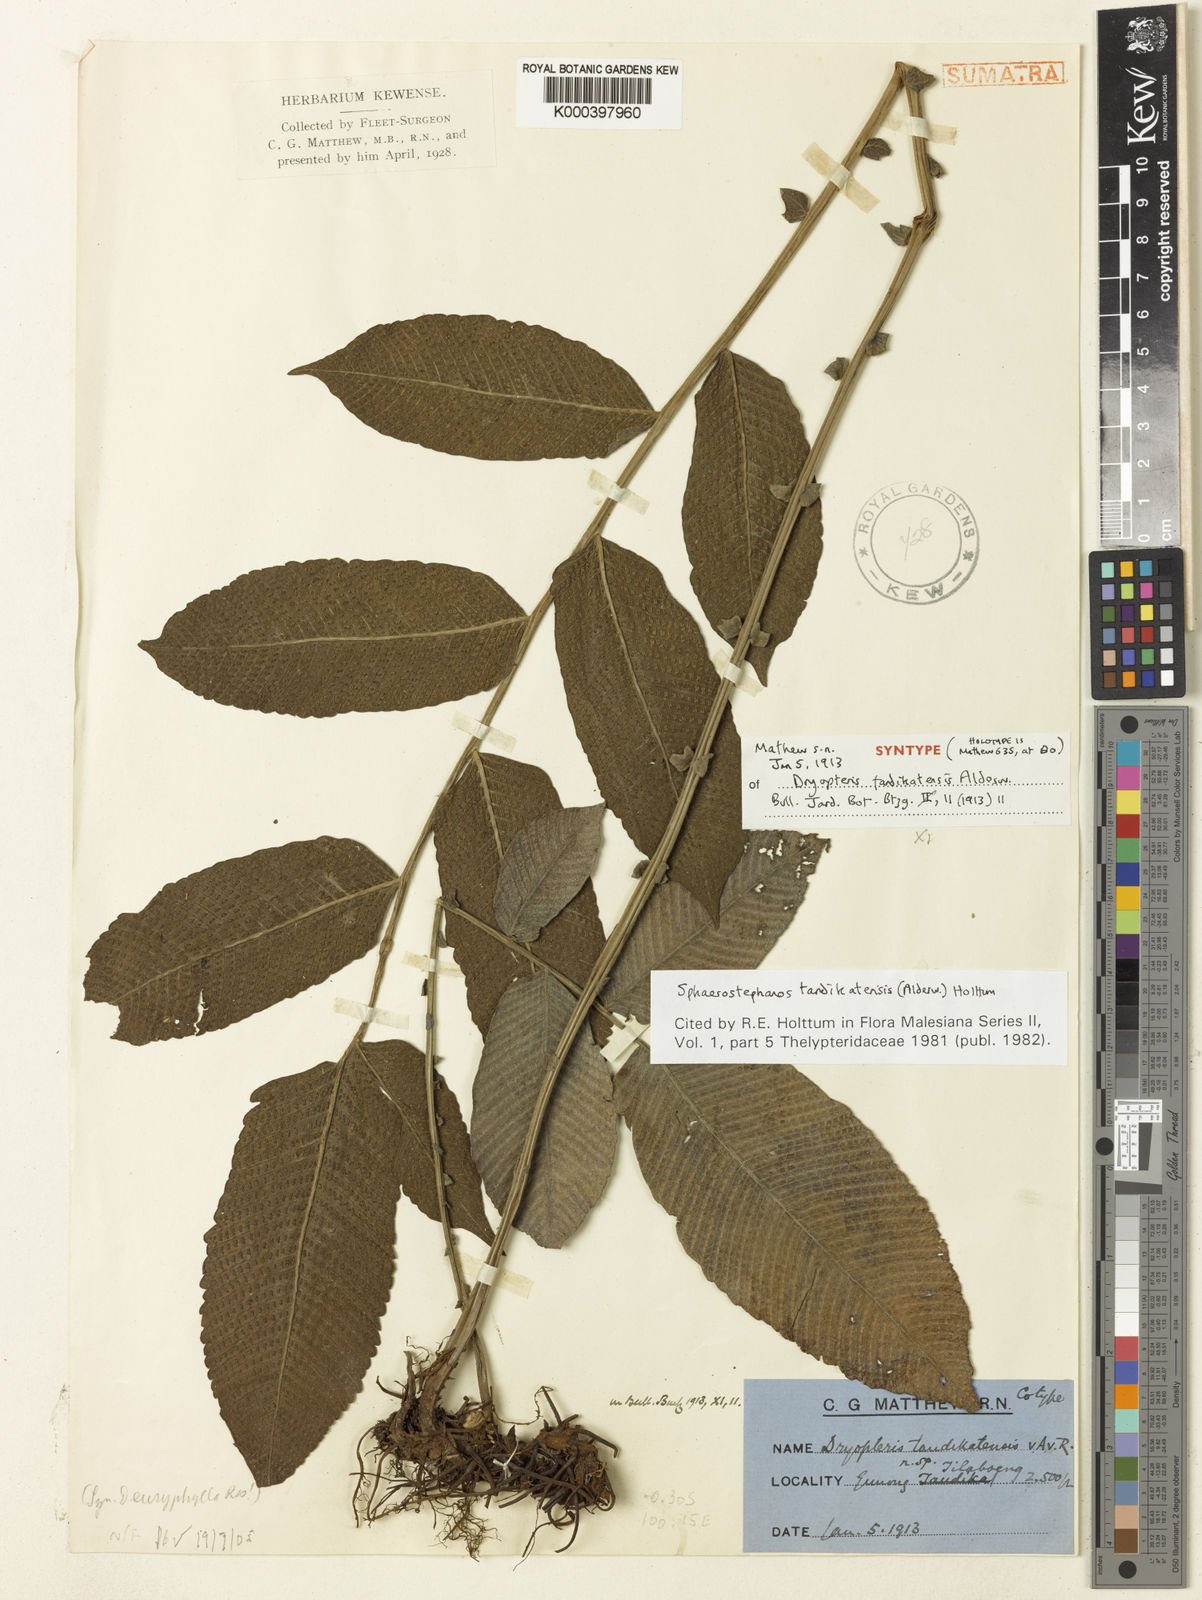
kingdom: Plantae
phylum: Tracheophyta
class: Polypodiopsida
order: Polypodiales
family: Thelypteridaceae
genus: Sphaerostephanos
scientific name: Sphaerostephanos tandikatensis
